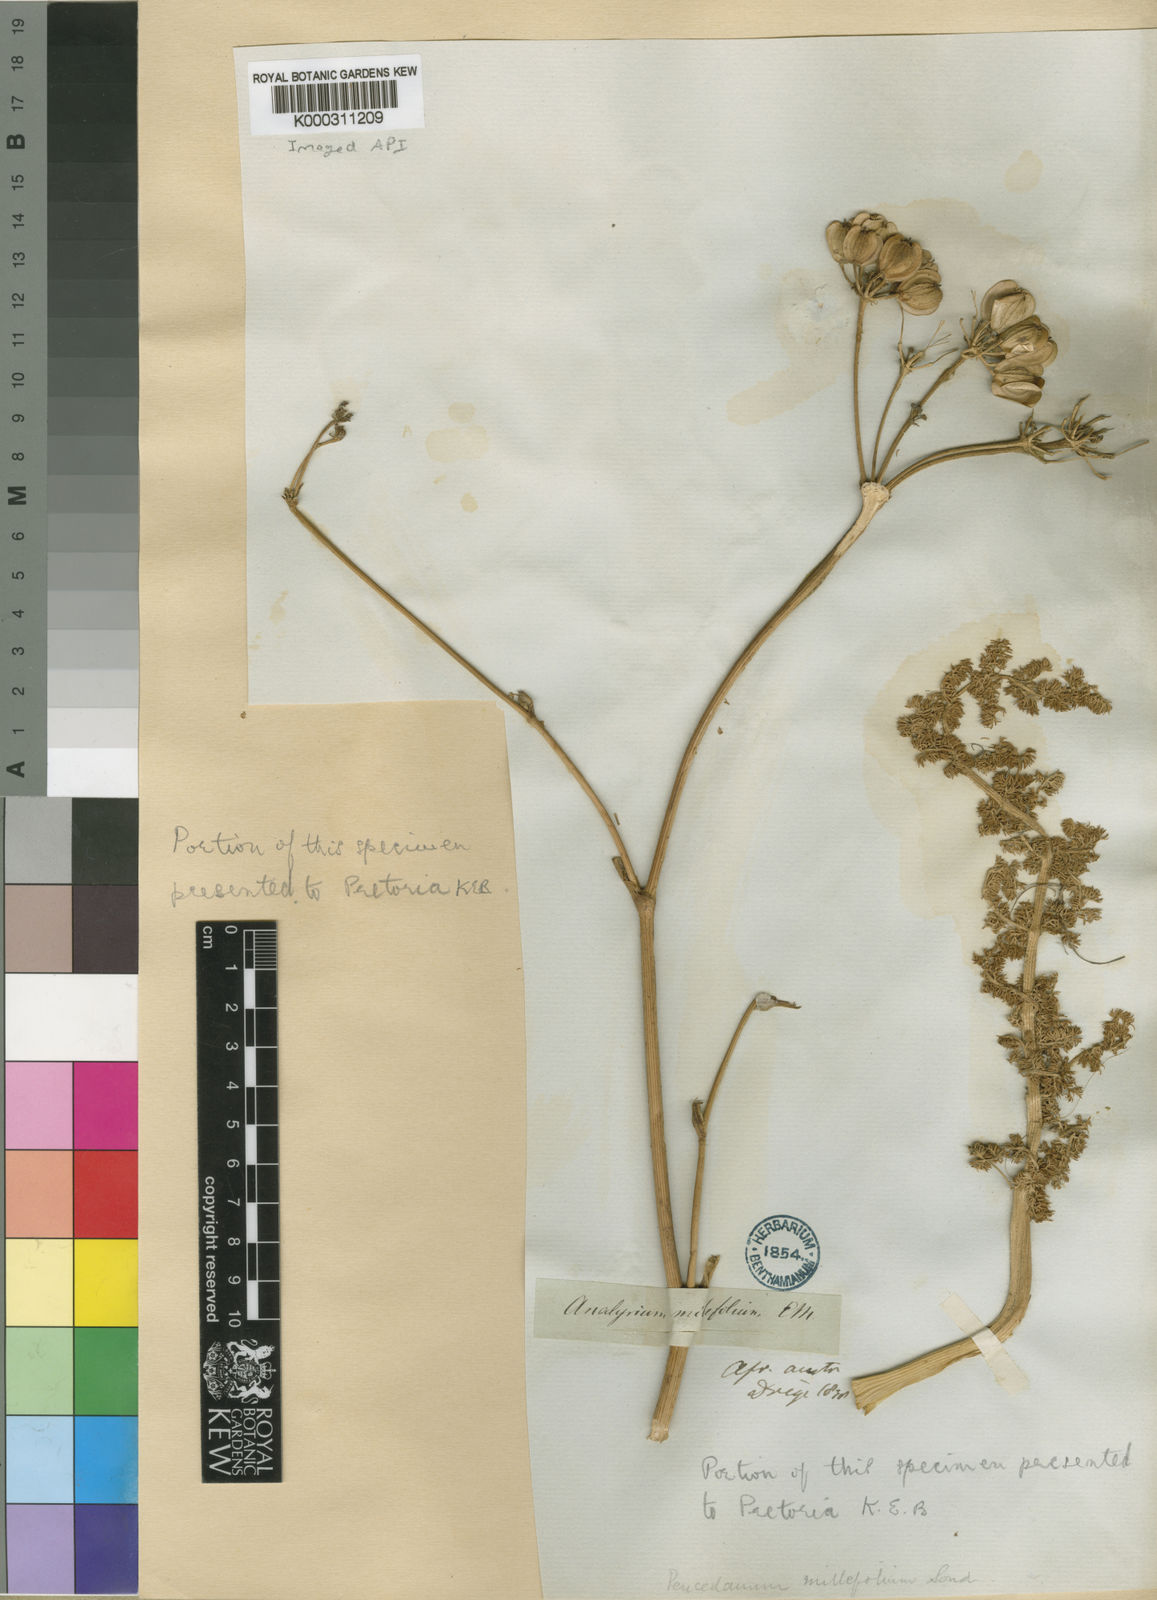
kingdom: Plantae
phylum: Tracheophyta
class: Magnoliopsida
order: Apiales
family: Apiaceae
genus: Cynorhiza
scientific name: Cynorhiza meifolia
